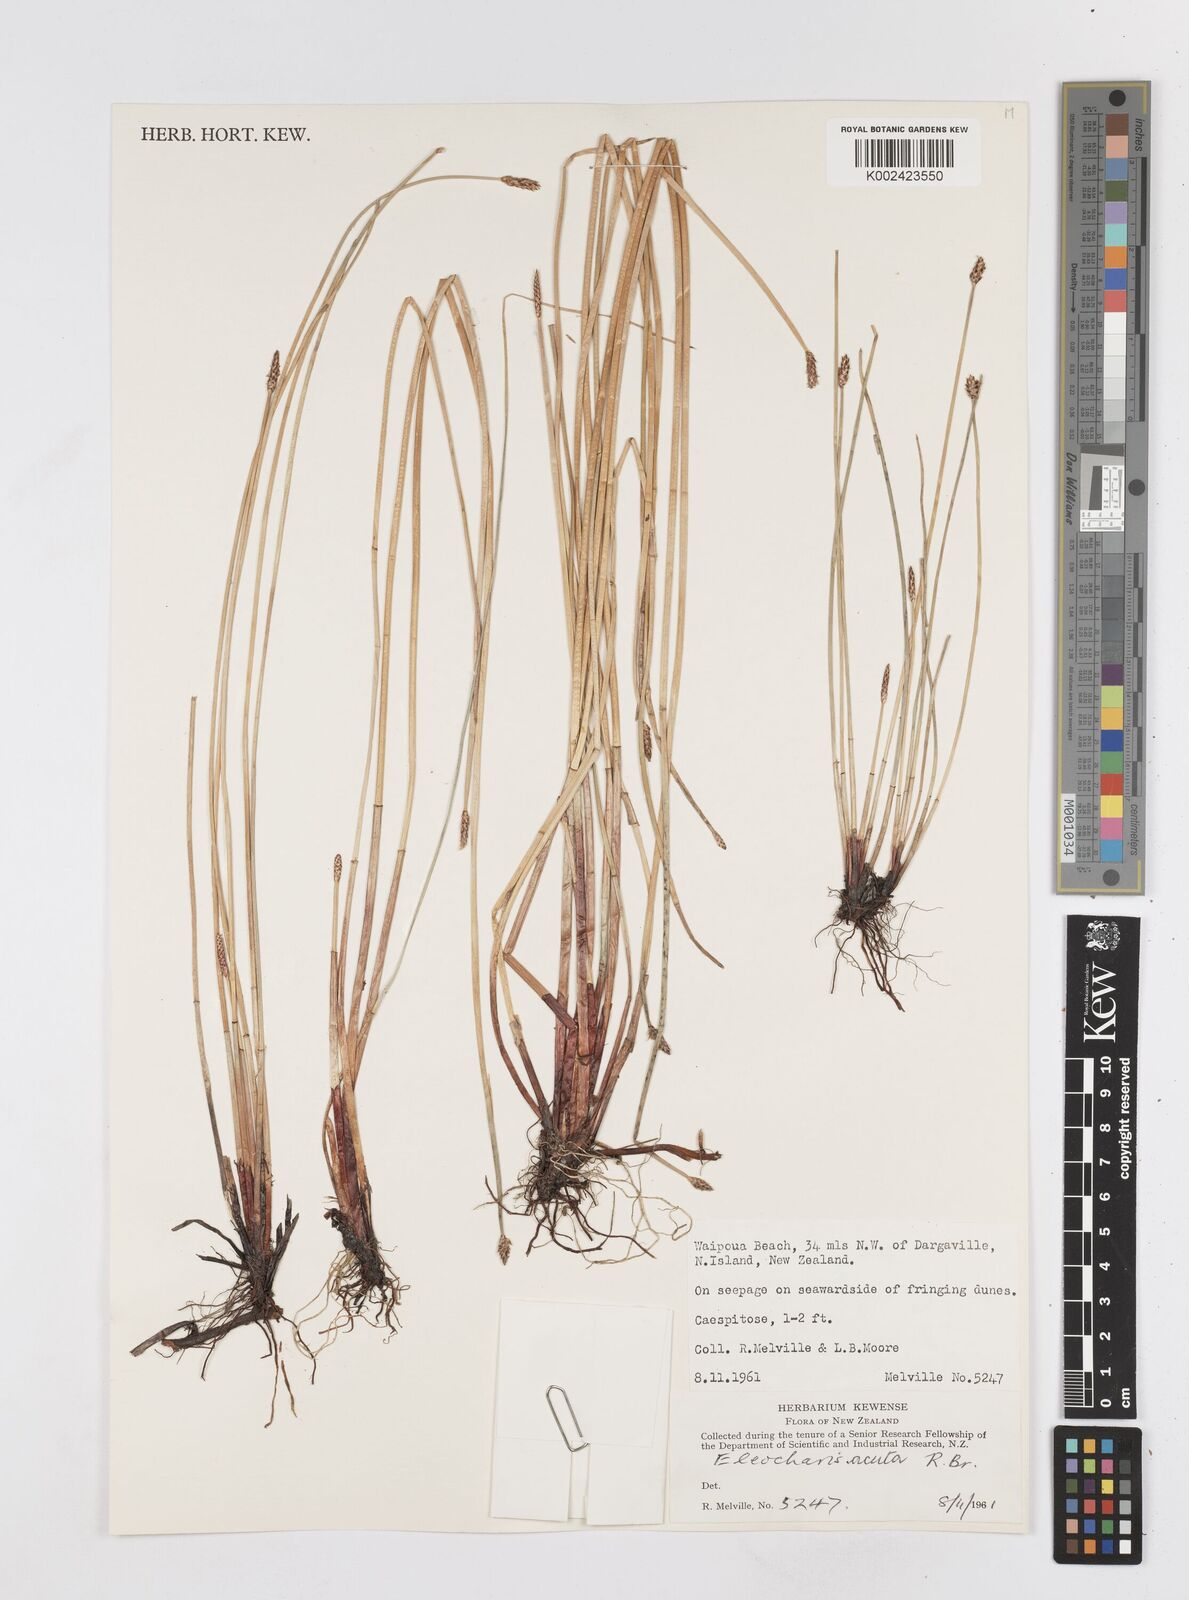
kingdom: Plantae
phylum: Tracheophyta
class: Liliopsida
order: Poales
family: Cyperaceae
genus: Eleocharis
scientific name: Eleocharis acuta
